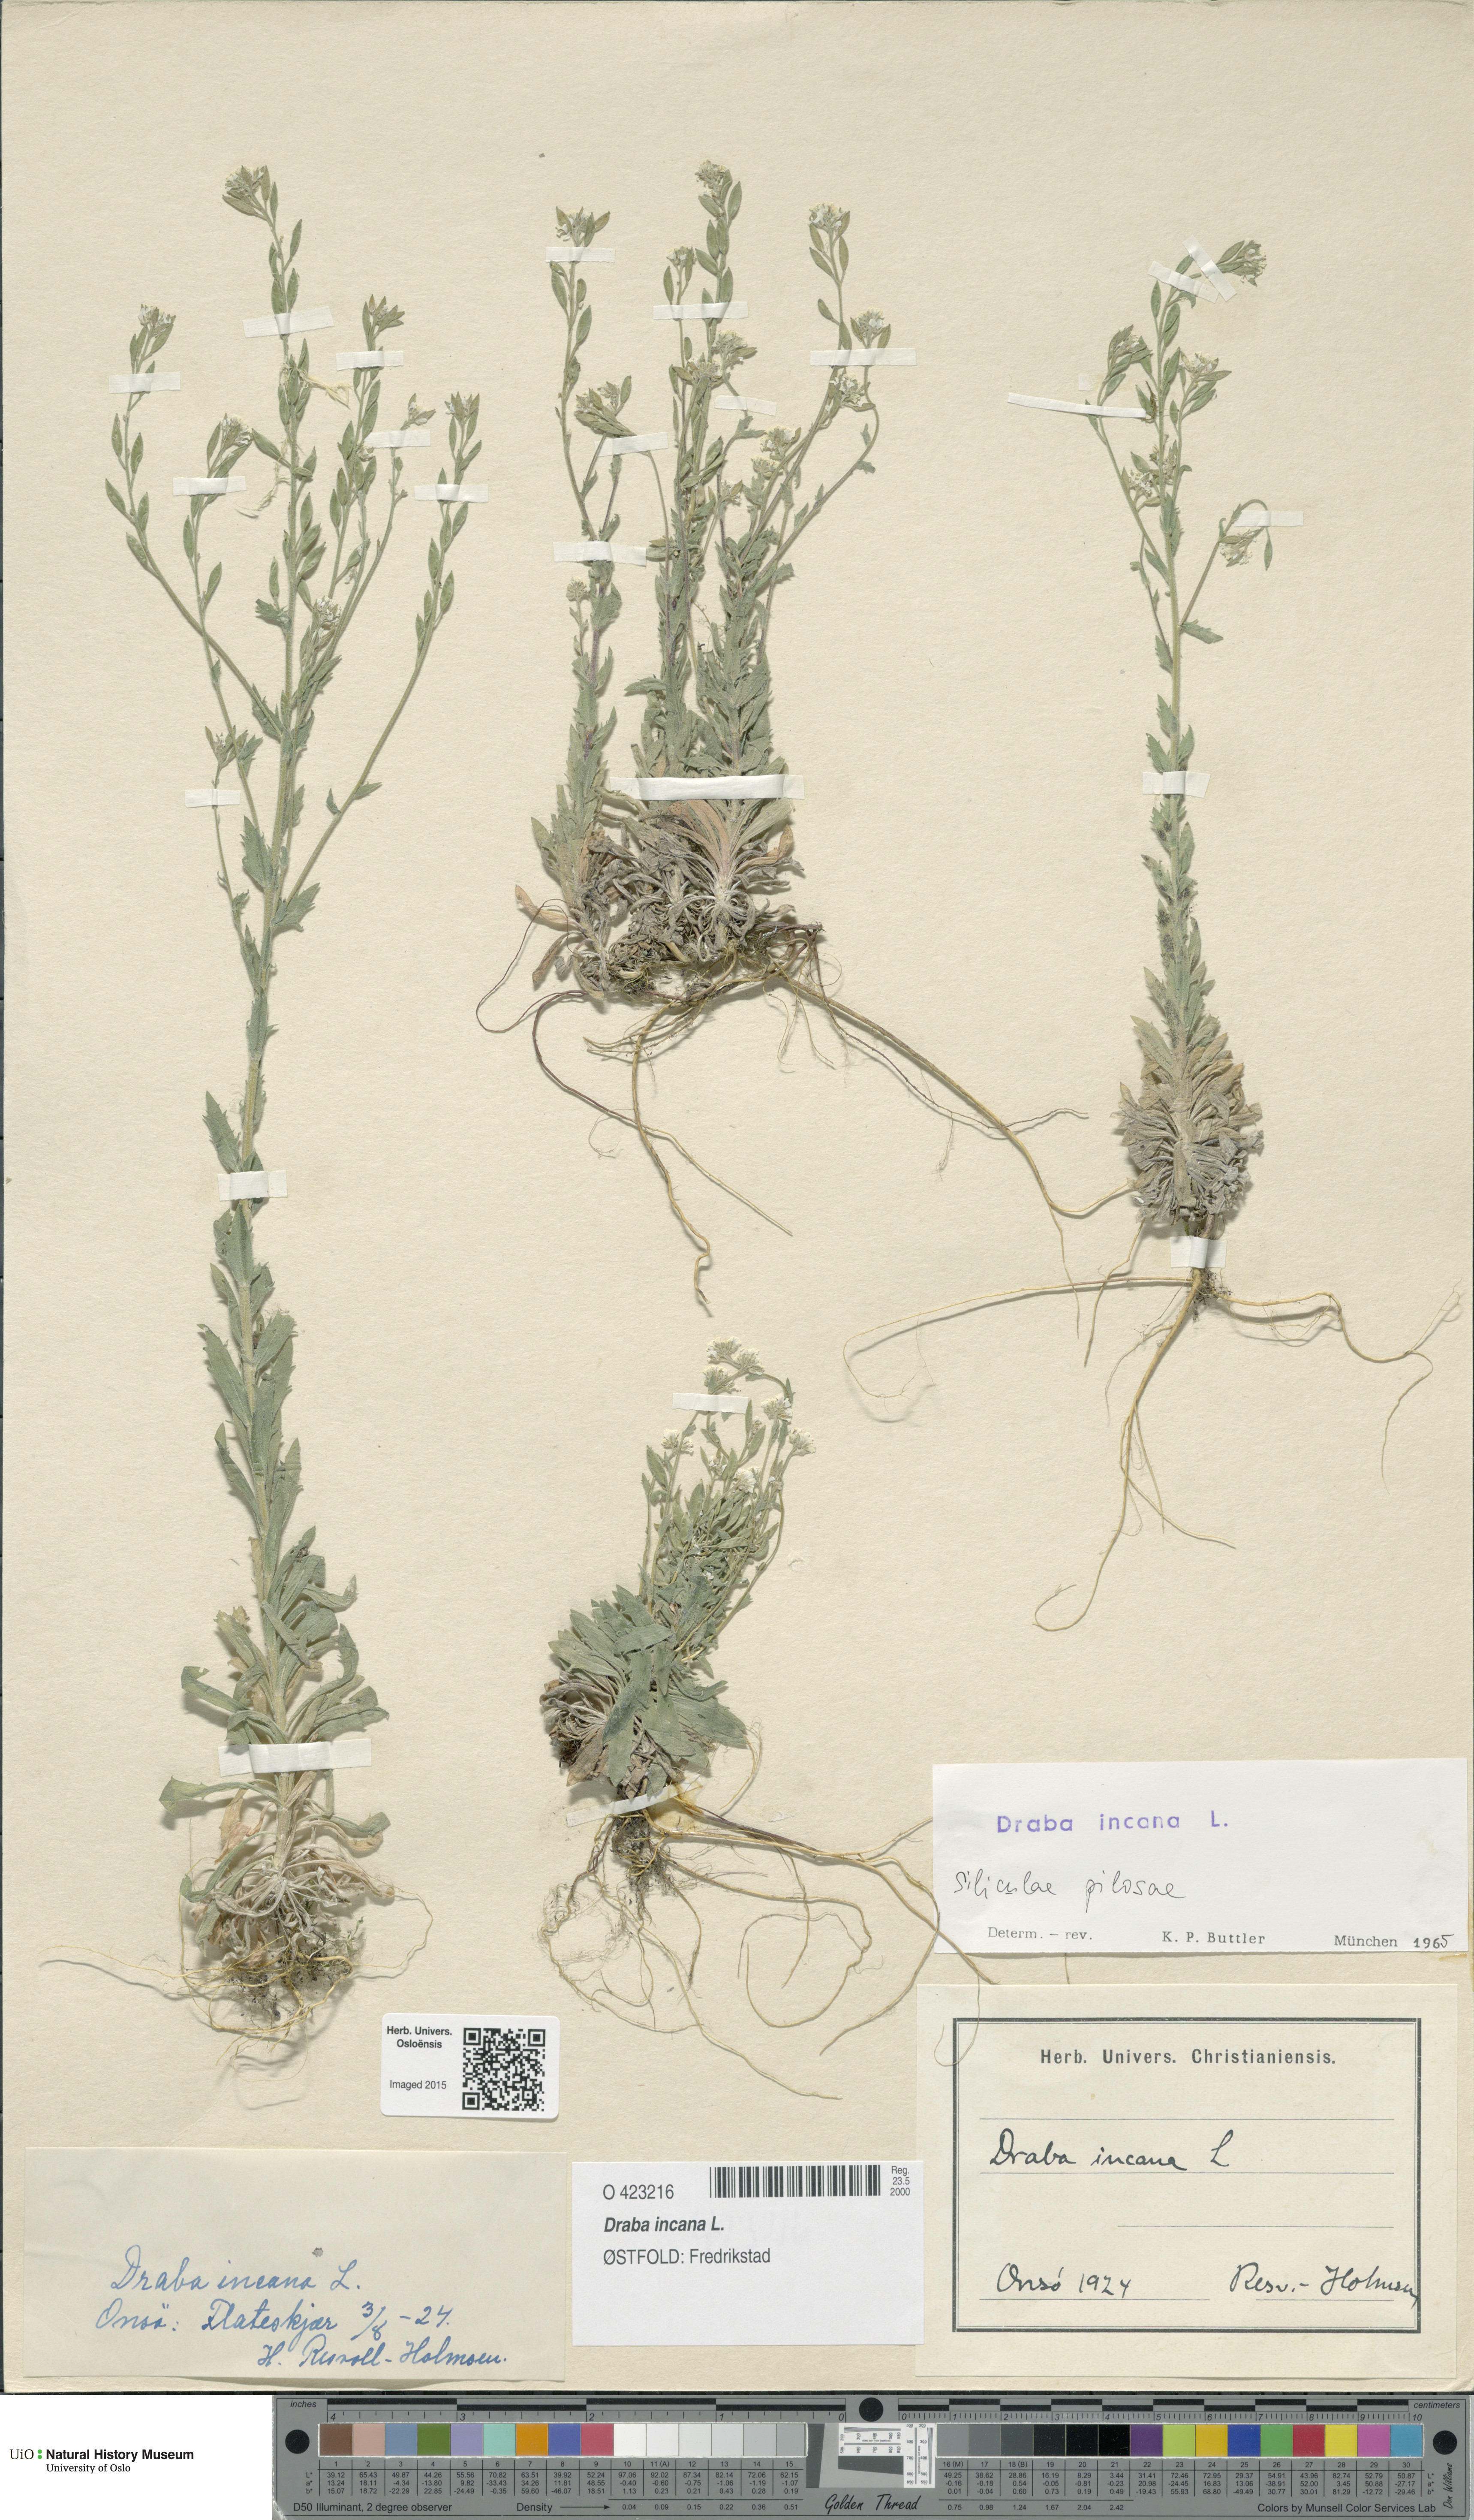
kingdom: Plantae
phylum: Tracheophyta
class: Magnoliopsida
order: Brassicales
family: Brassicaceae
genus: Draba
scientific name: Draba incana
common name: Hoary whitlow-grass
